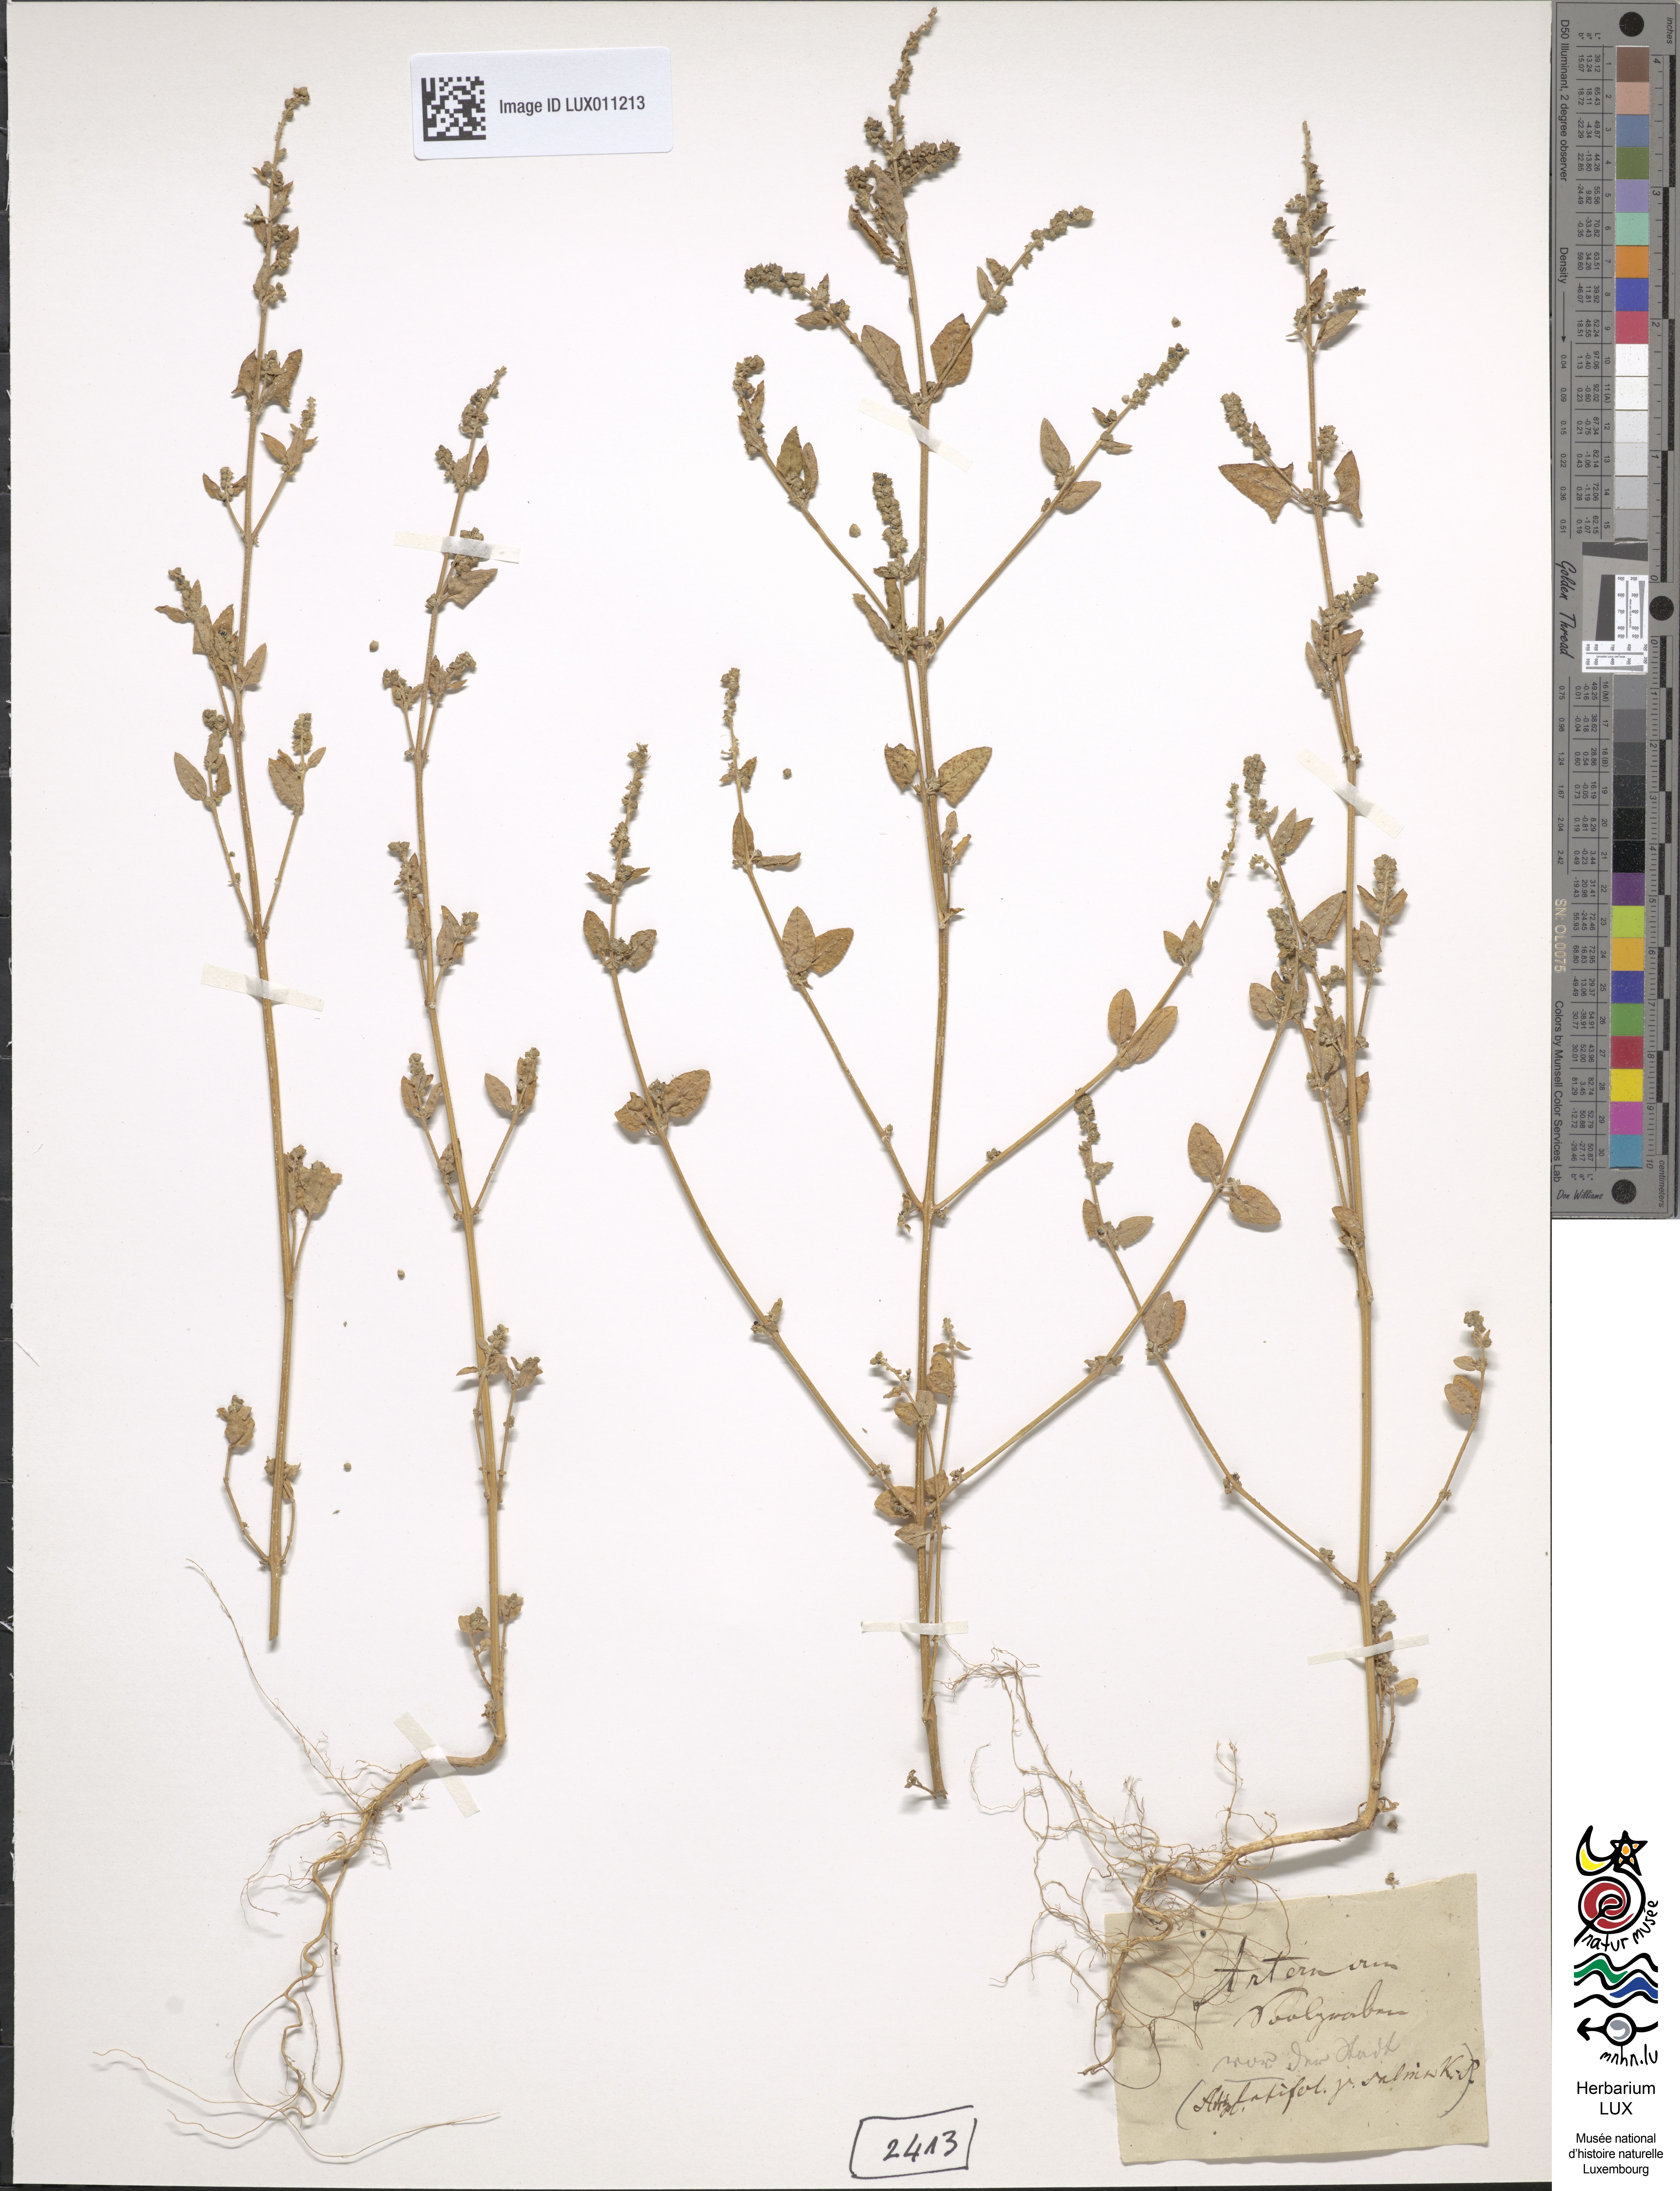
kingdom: Plantae
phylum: Tracheophyta
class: Magnoliopsida
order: Caryophyllales
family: Amaranthaceae
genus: Atriplex
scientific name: Atriplex
